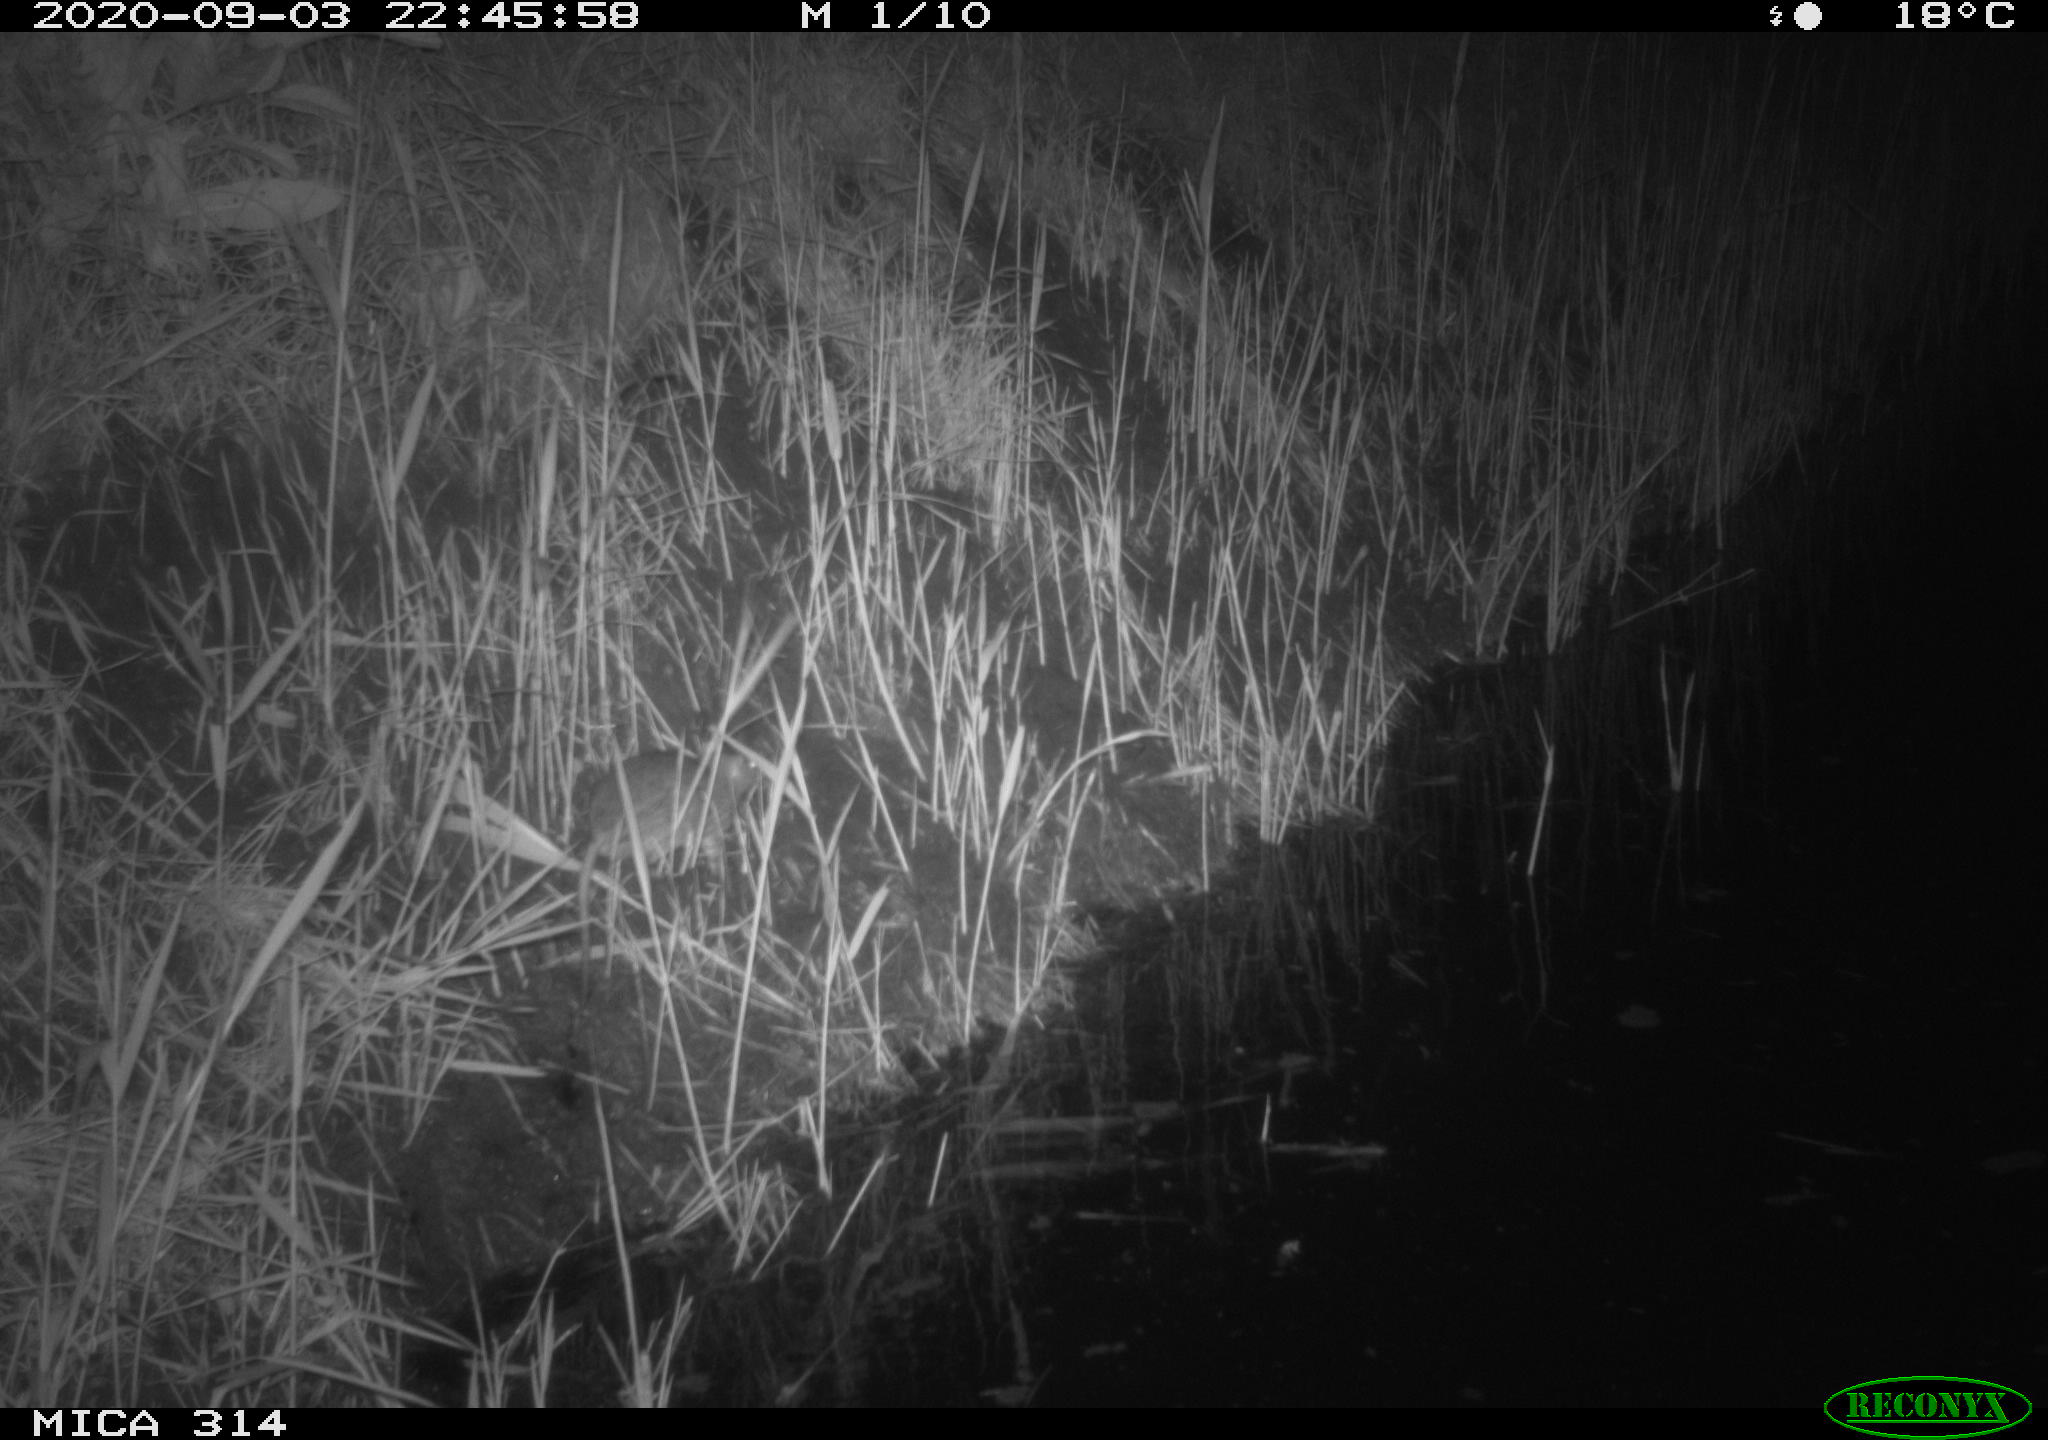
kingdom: Animalia
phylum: Chordata
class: Mammalia
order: Rodentia
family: Muridae
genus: Rattus
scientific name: Rattus norvegicus
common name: Brown rat
